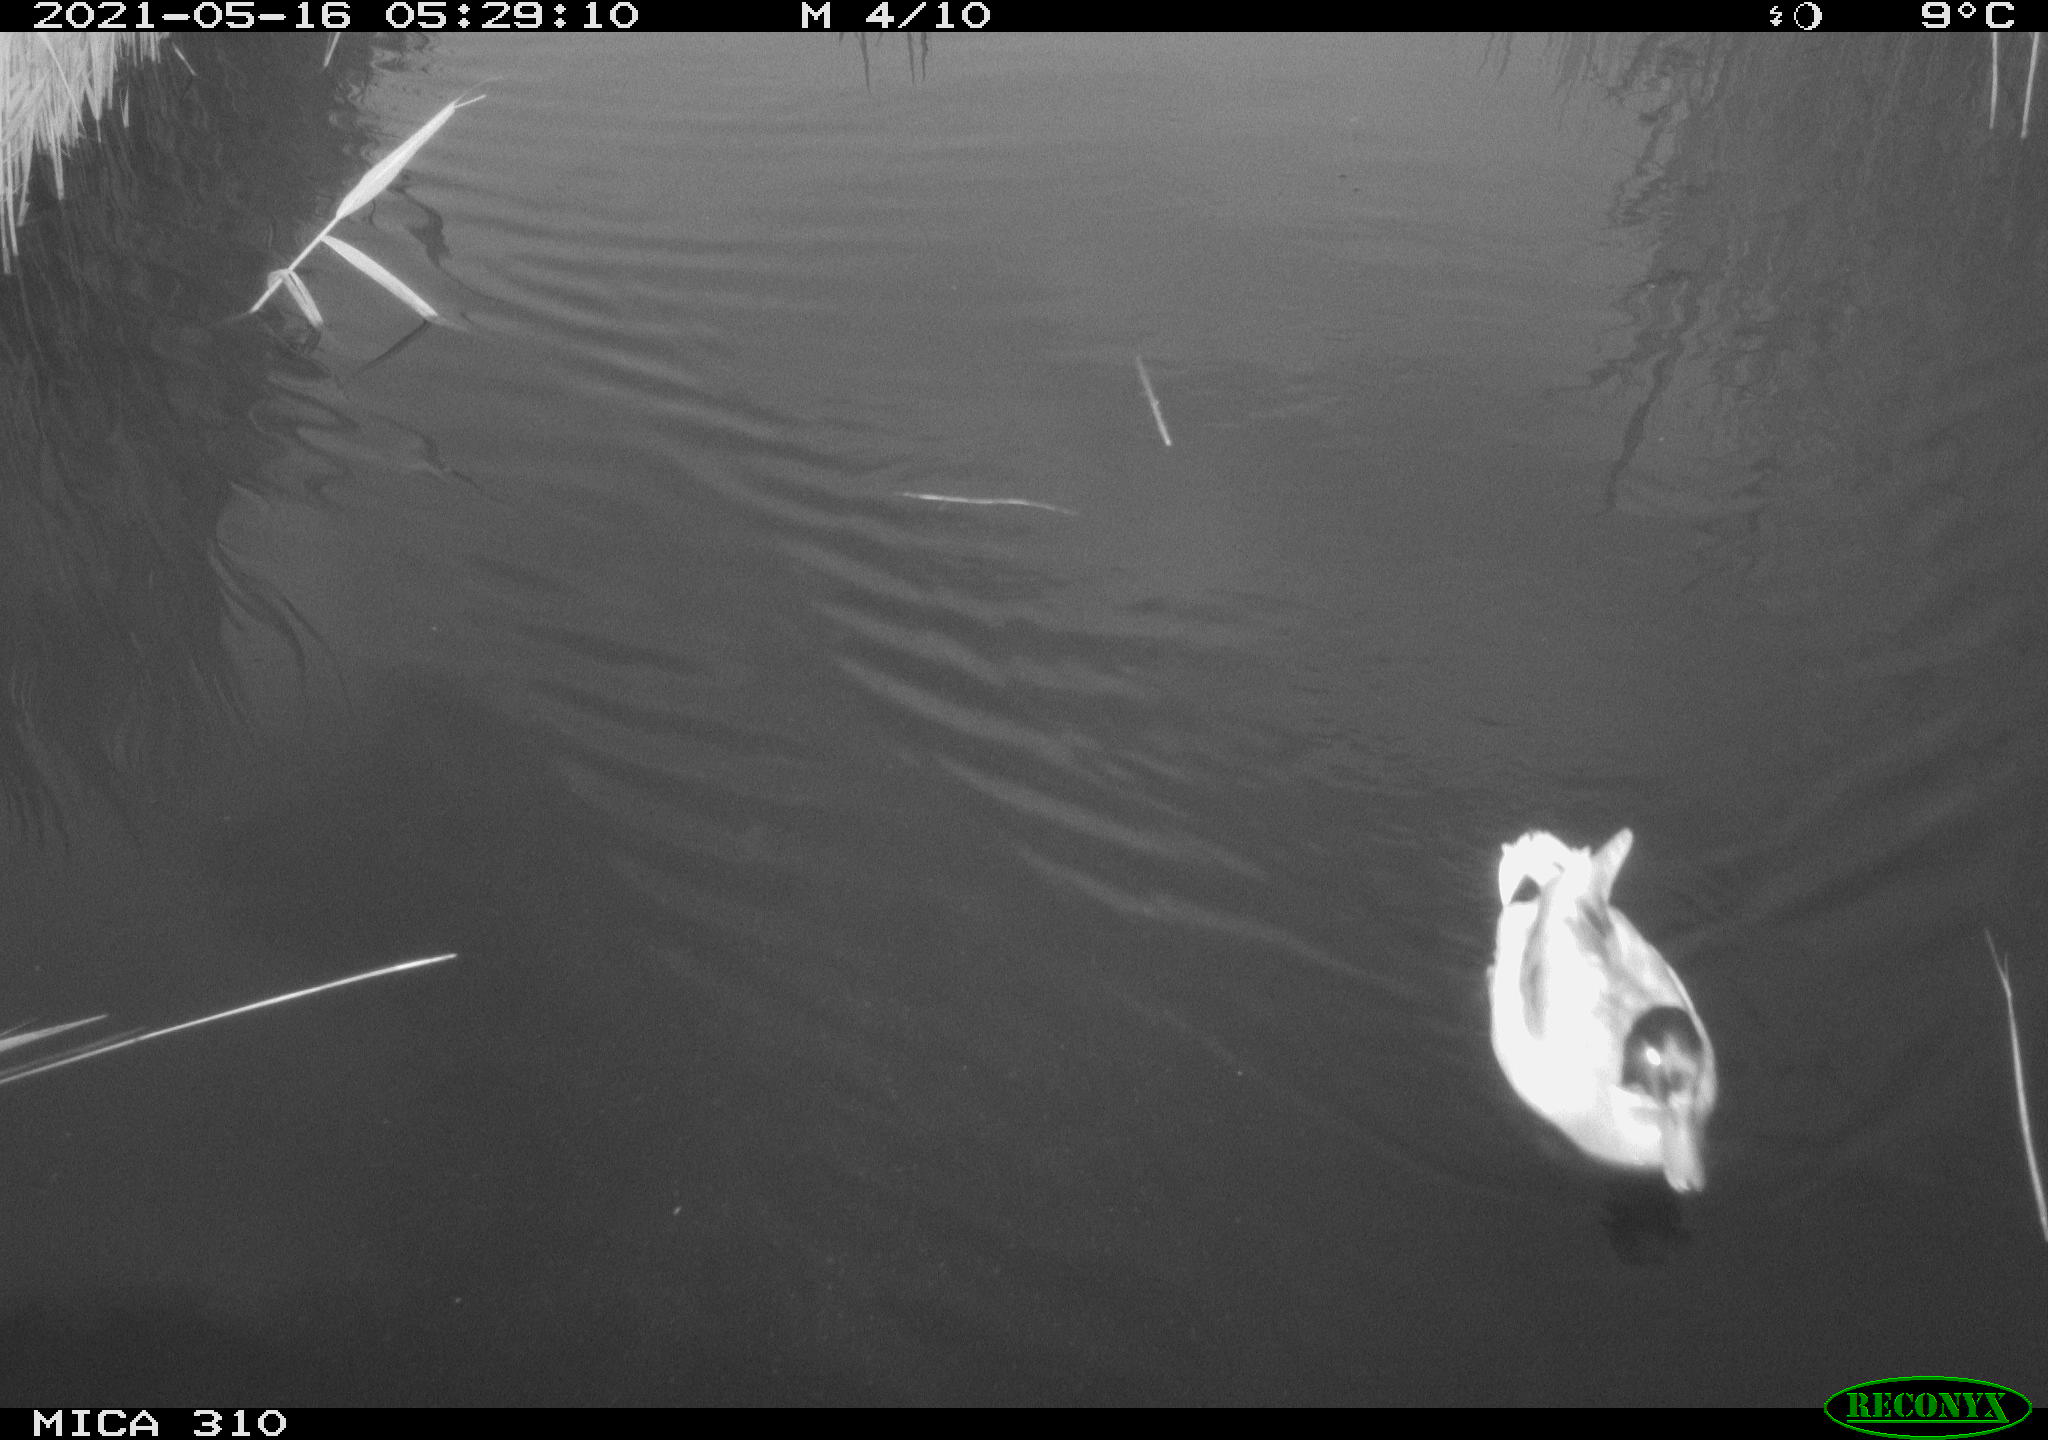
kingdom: Animalia
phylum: Chordata
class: Aves
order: Anseriformes
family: Anatidae
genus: Anas
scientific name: Anas platyrhynchos
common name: Mallard
